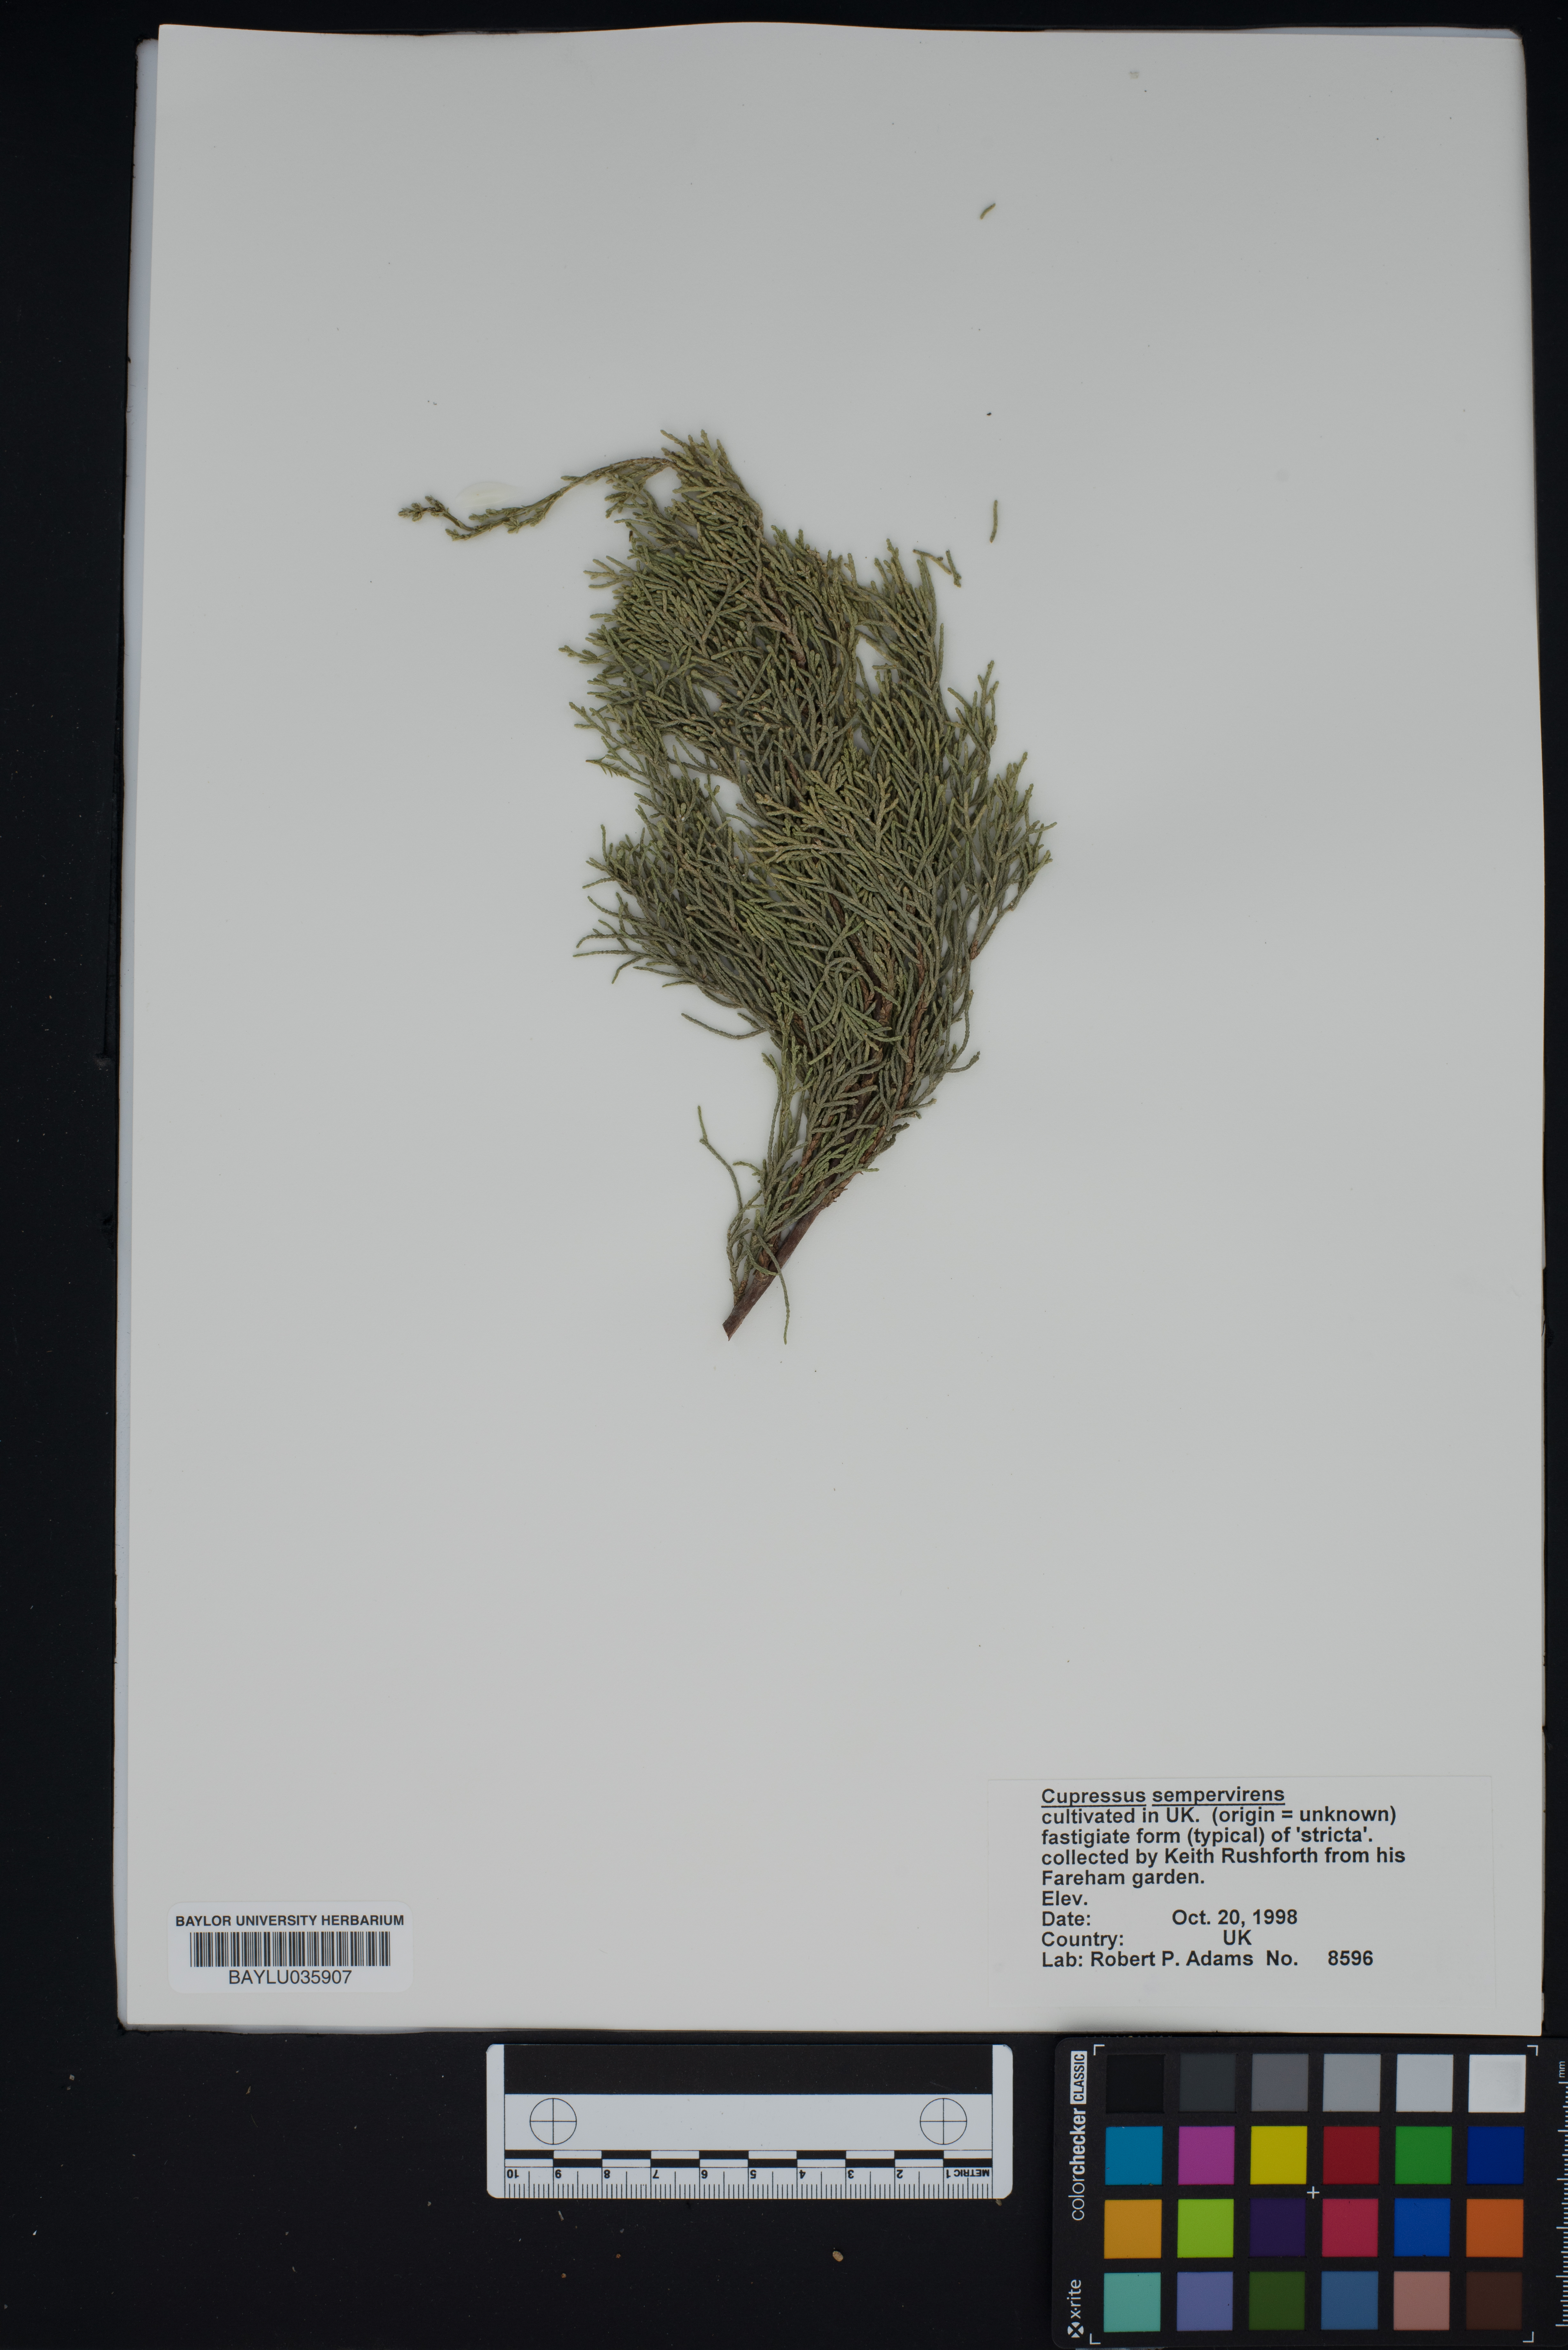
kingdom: Plantae
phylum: Tracheophyta
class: Pinopsida
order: Pinales
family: Cupressaceae
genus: Cupressus
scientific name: Cupressus sempervirens
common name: Italian cypress
